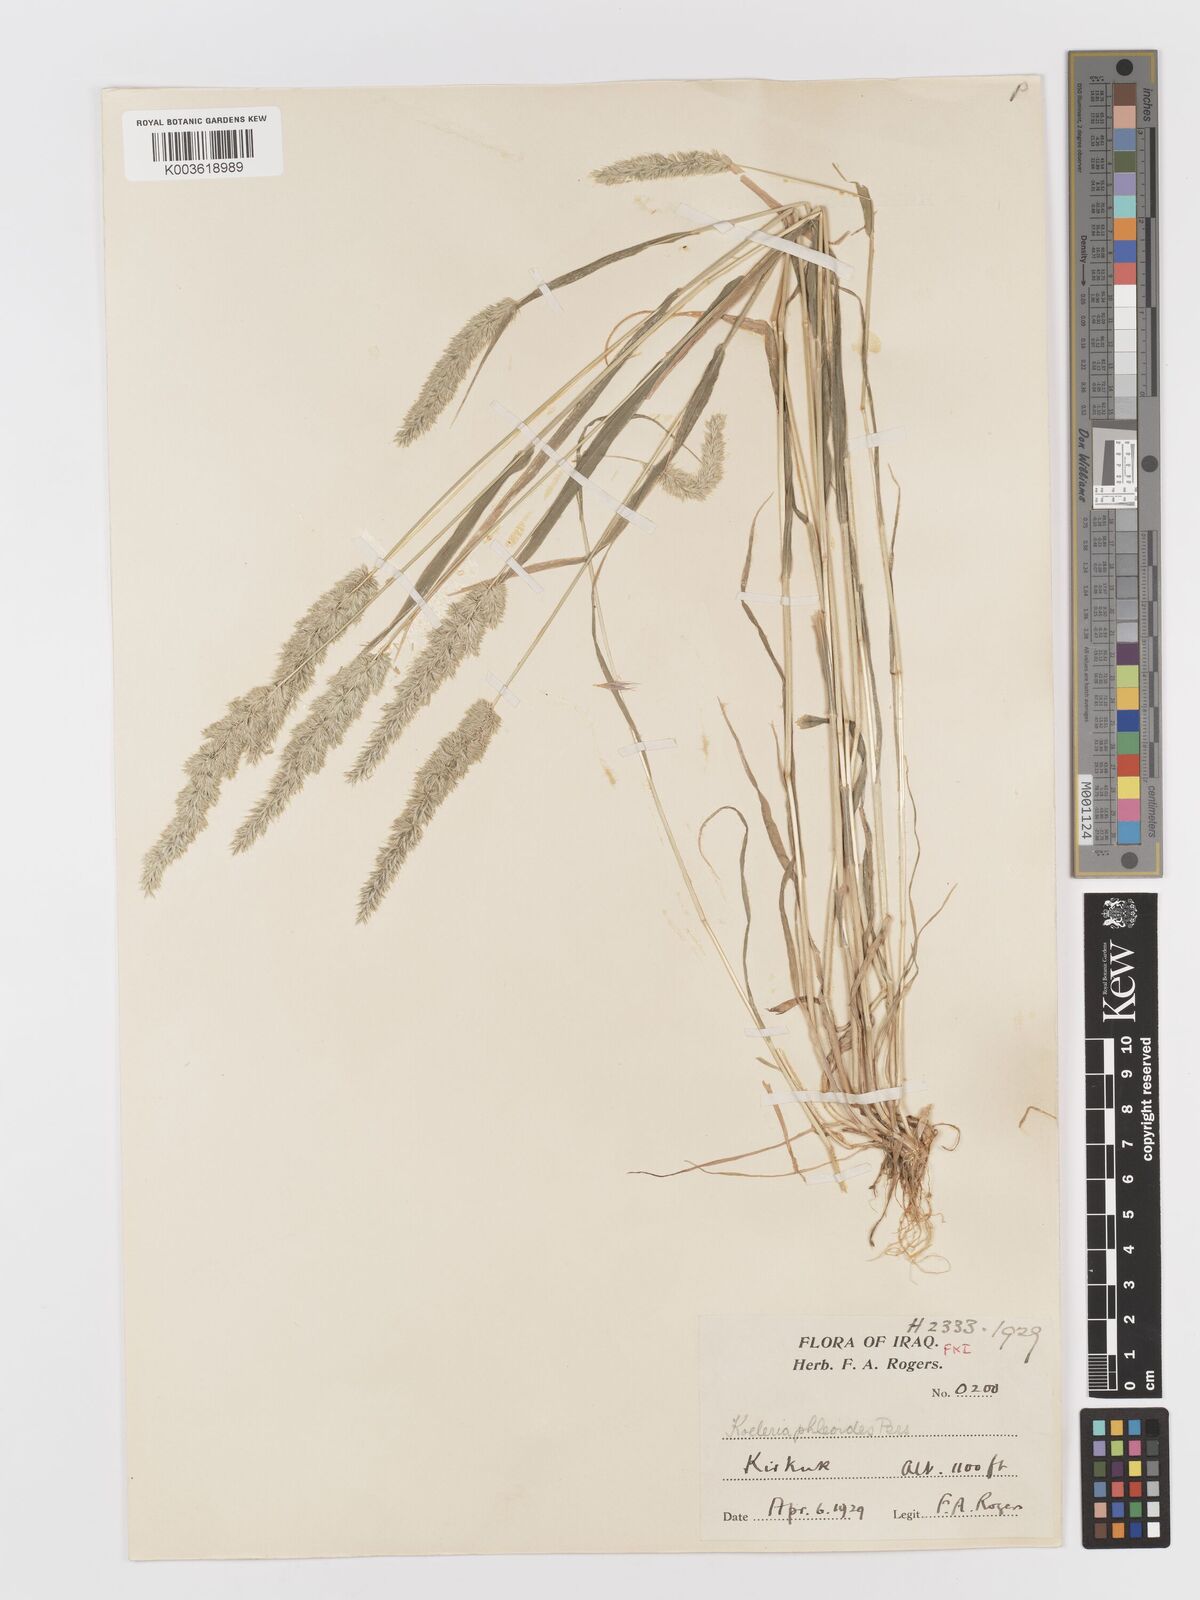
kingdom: Plantae
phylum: Tracheophyta
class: Liliopsida
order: Poales
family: Poaceae
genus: Rostraria
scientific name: Rostraria cristata
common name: Mediterranean hair-grass
